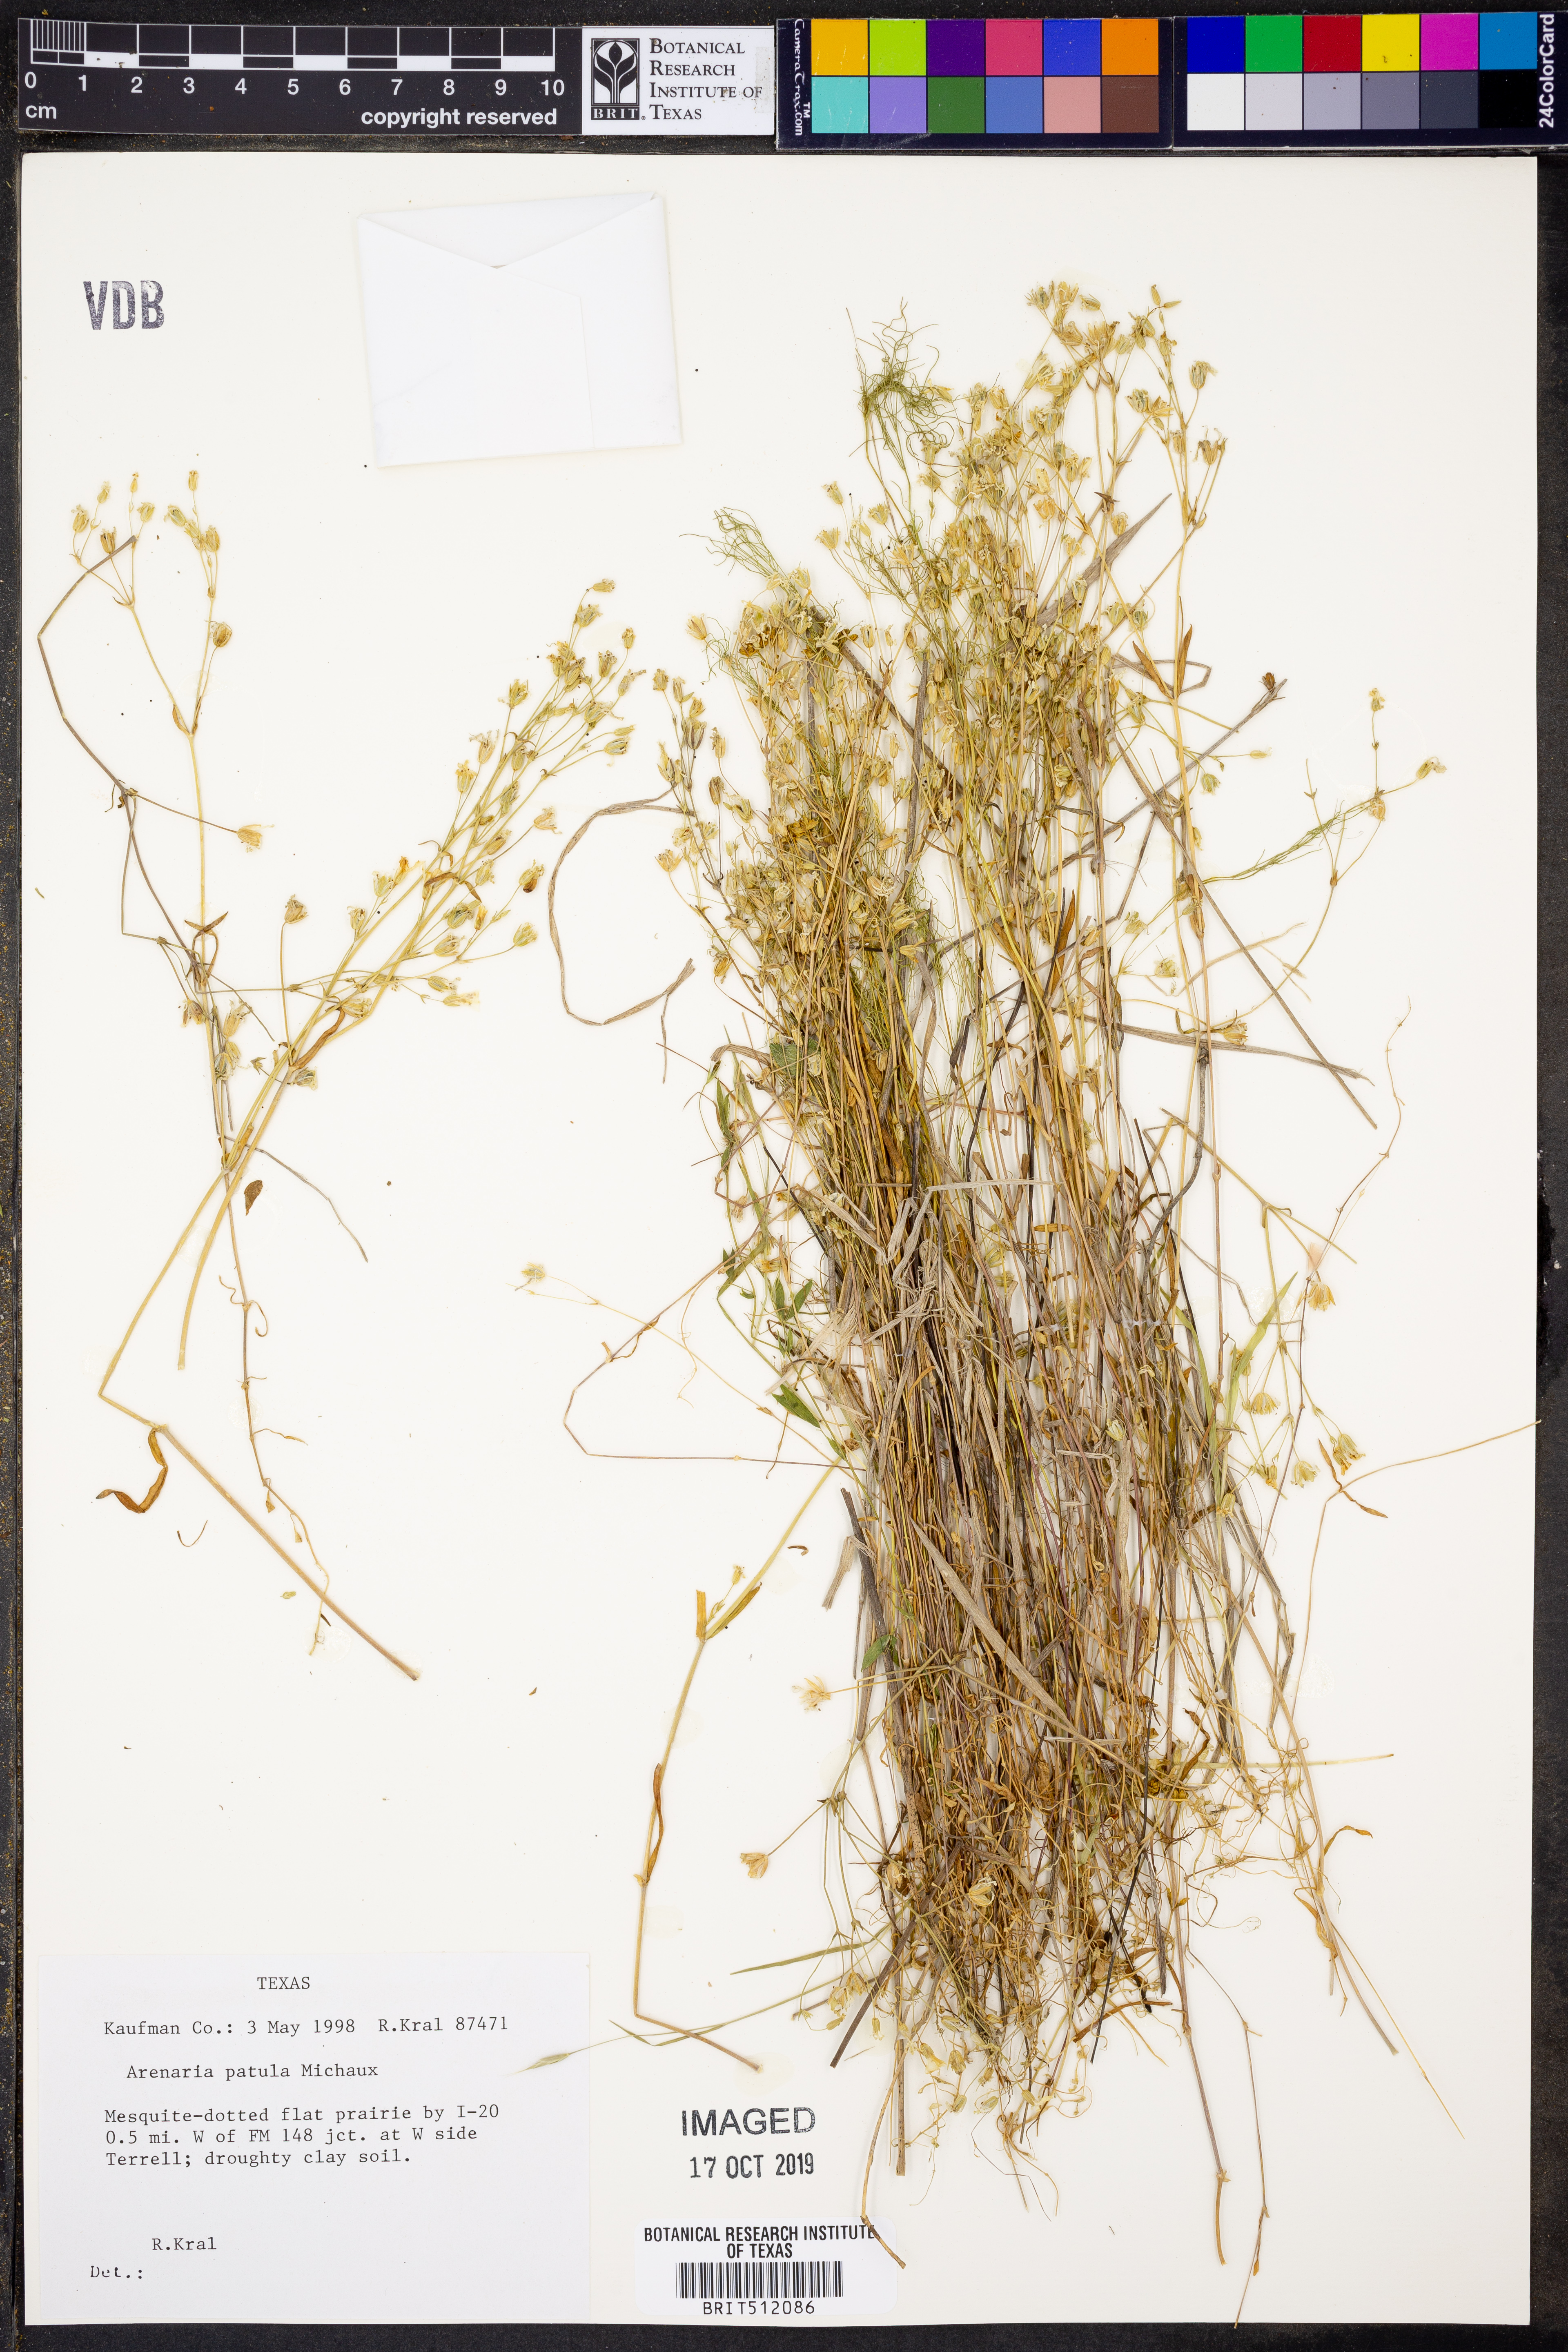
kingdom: Plantae
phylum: Tracheophyta
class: Magnoliopsida
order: Caryophyllales
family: Caryophyllaceae
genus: Mononeuria
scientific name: Mononeuria patula
